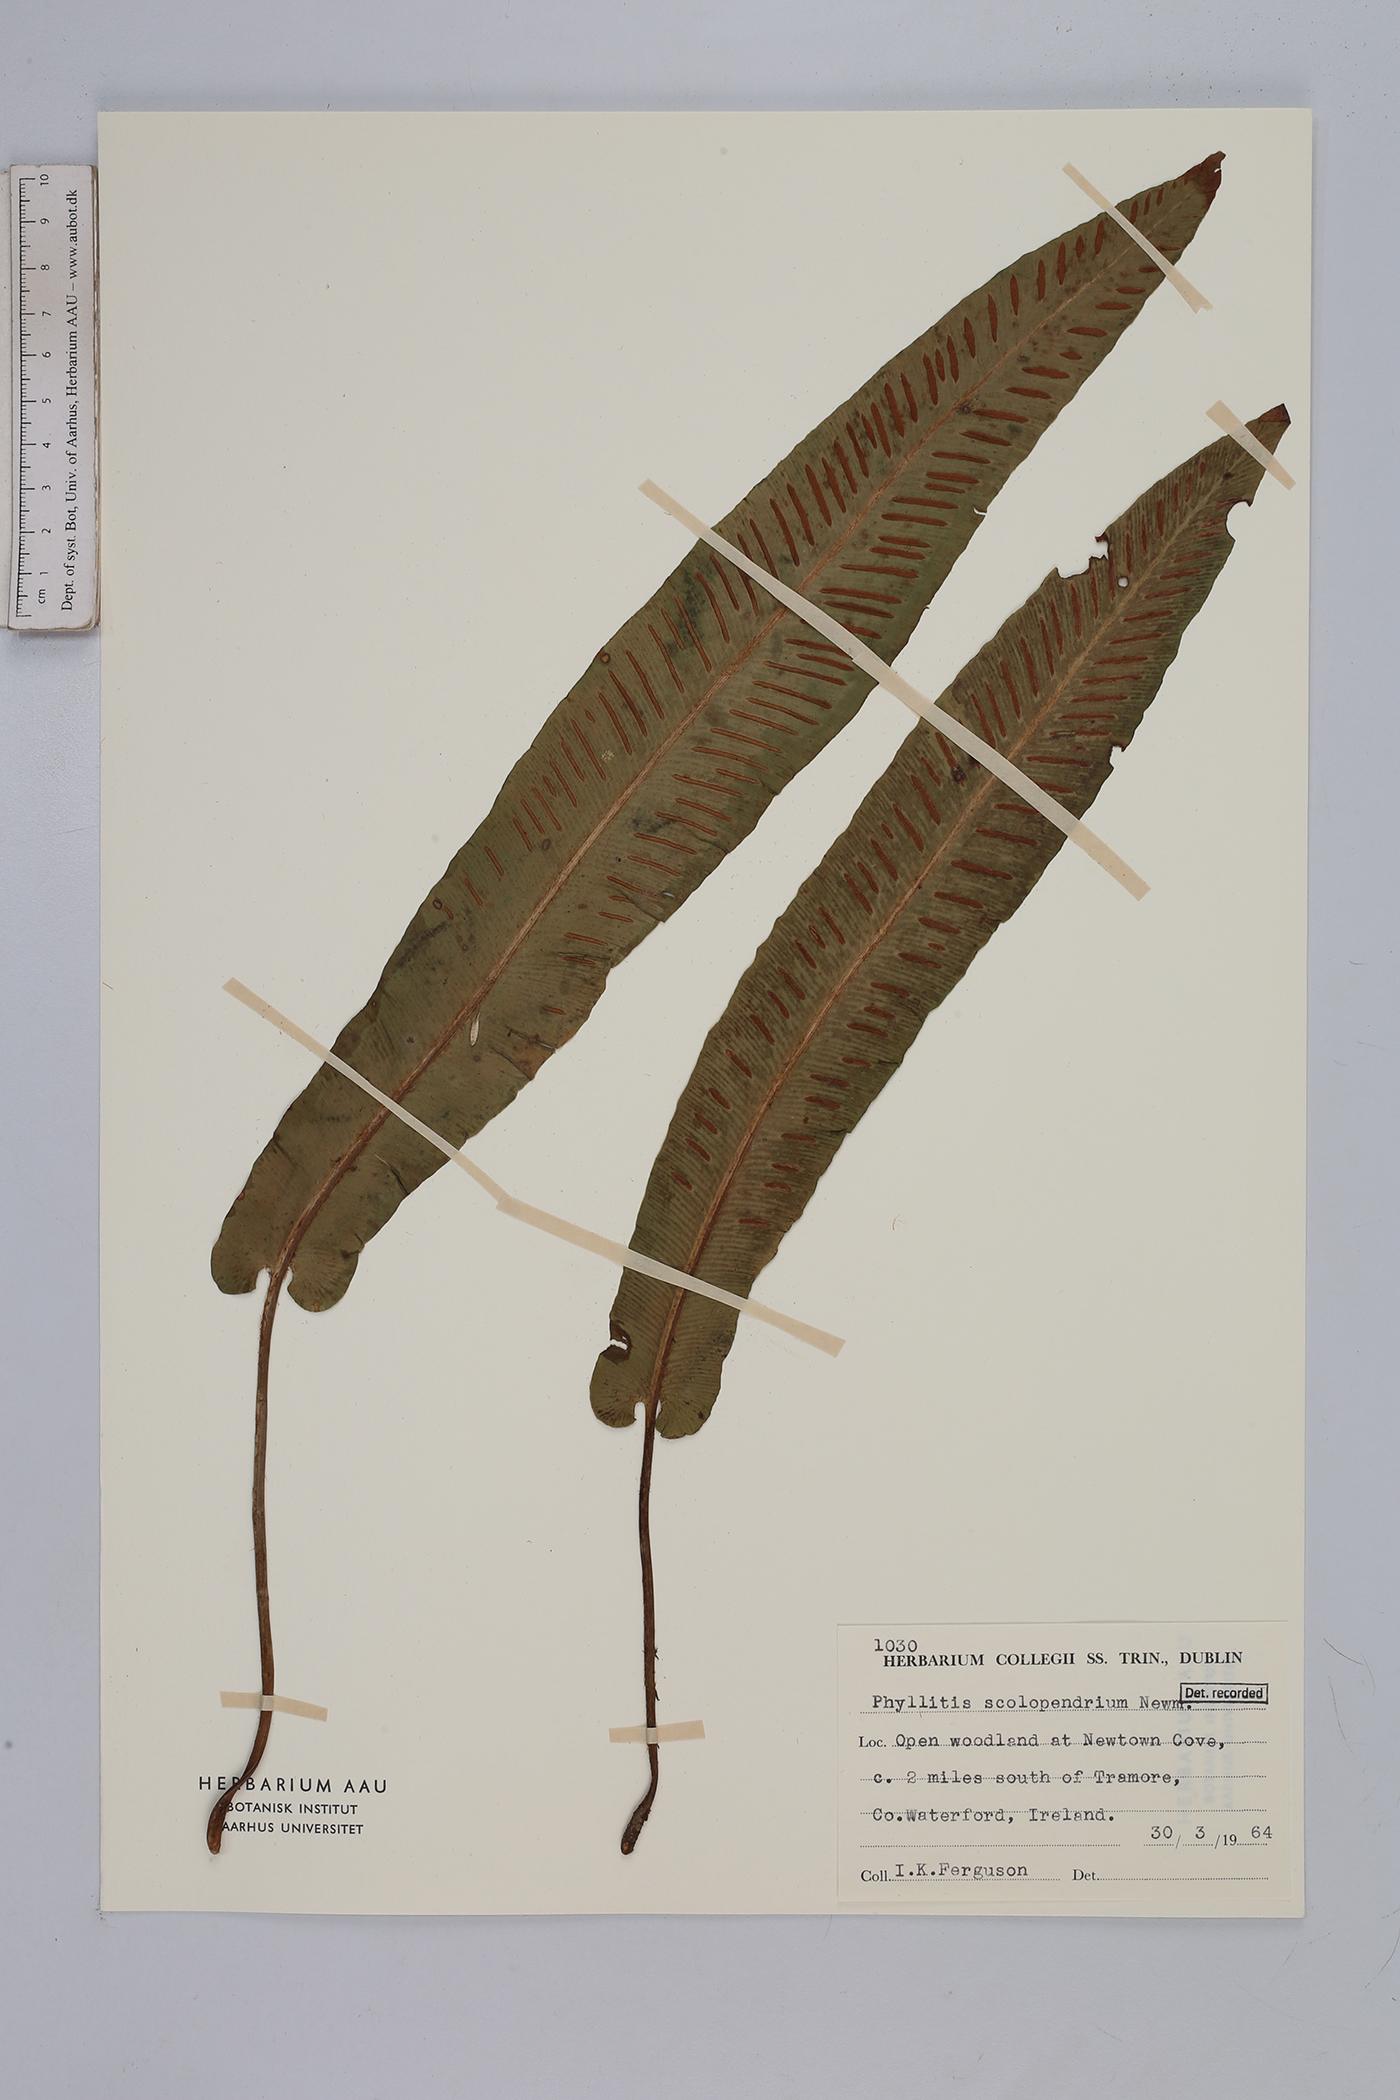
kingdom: Plantae
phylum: Tracheophyta
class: Polypodiopsida
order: Polypodiales
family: Aspleniaceae
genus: Asplenium
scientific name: Asplenium scolopendrium
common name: Hart's-tongue fern
